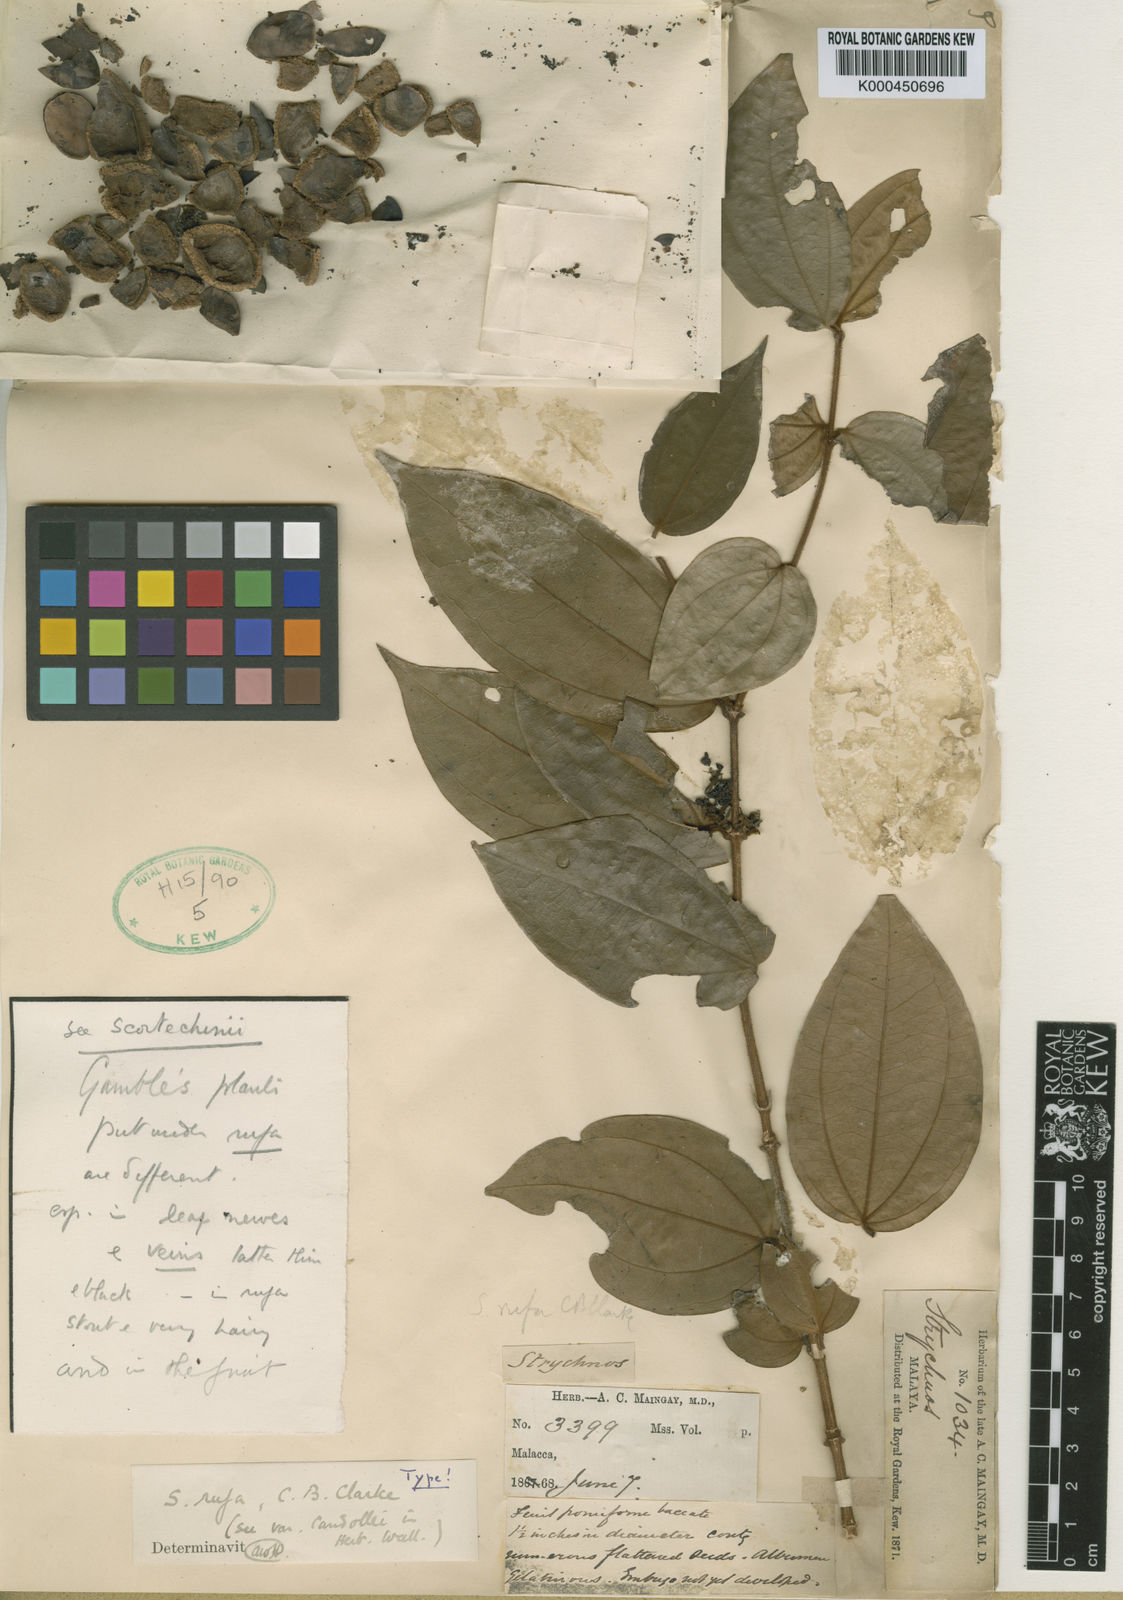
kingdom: Plantae
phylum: Tracheophyta
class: Magnoliopsida
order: Gentianales
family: Loganiaceae
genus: Strychnos
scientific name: Strychnos rufa
